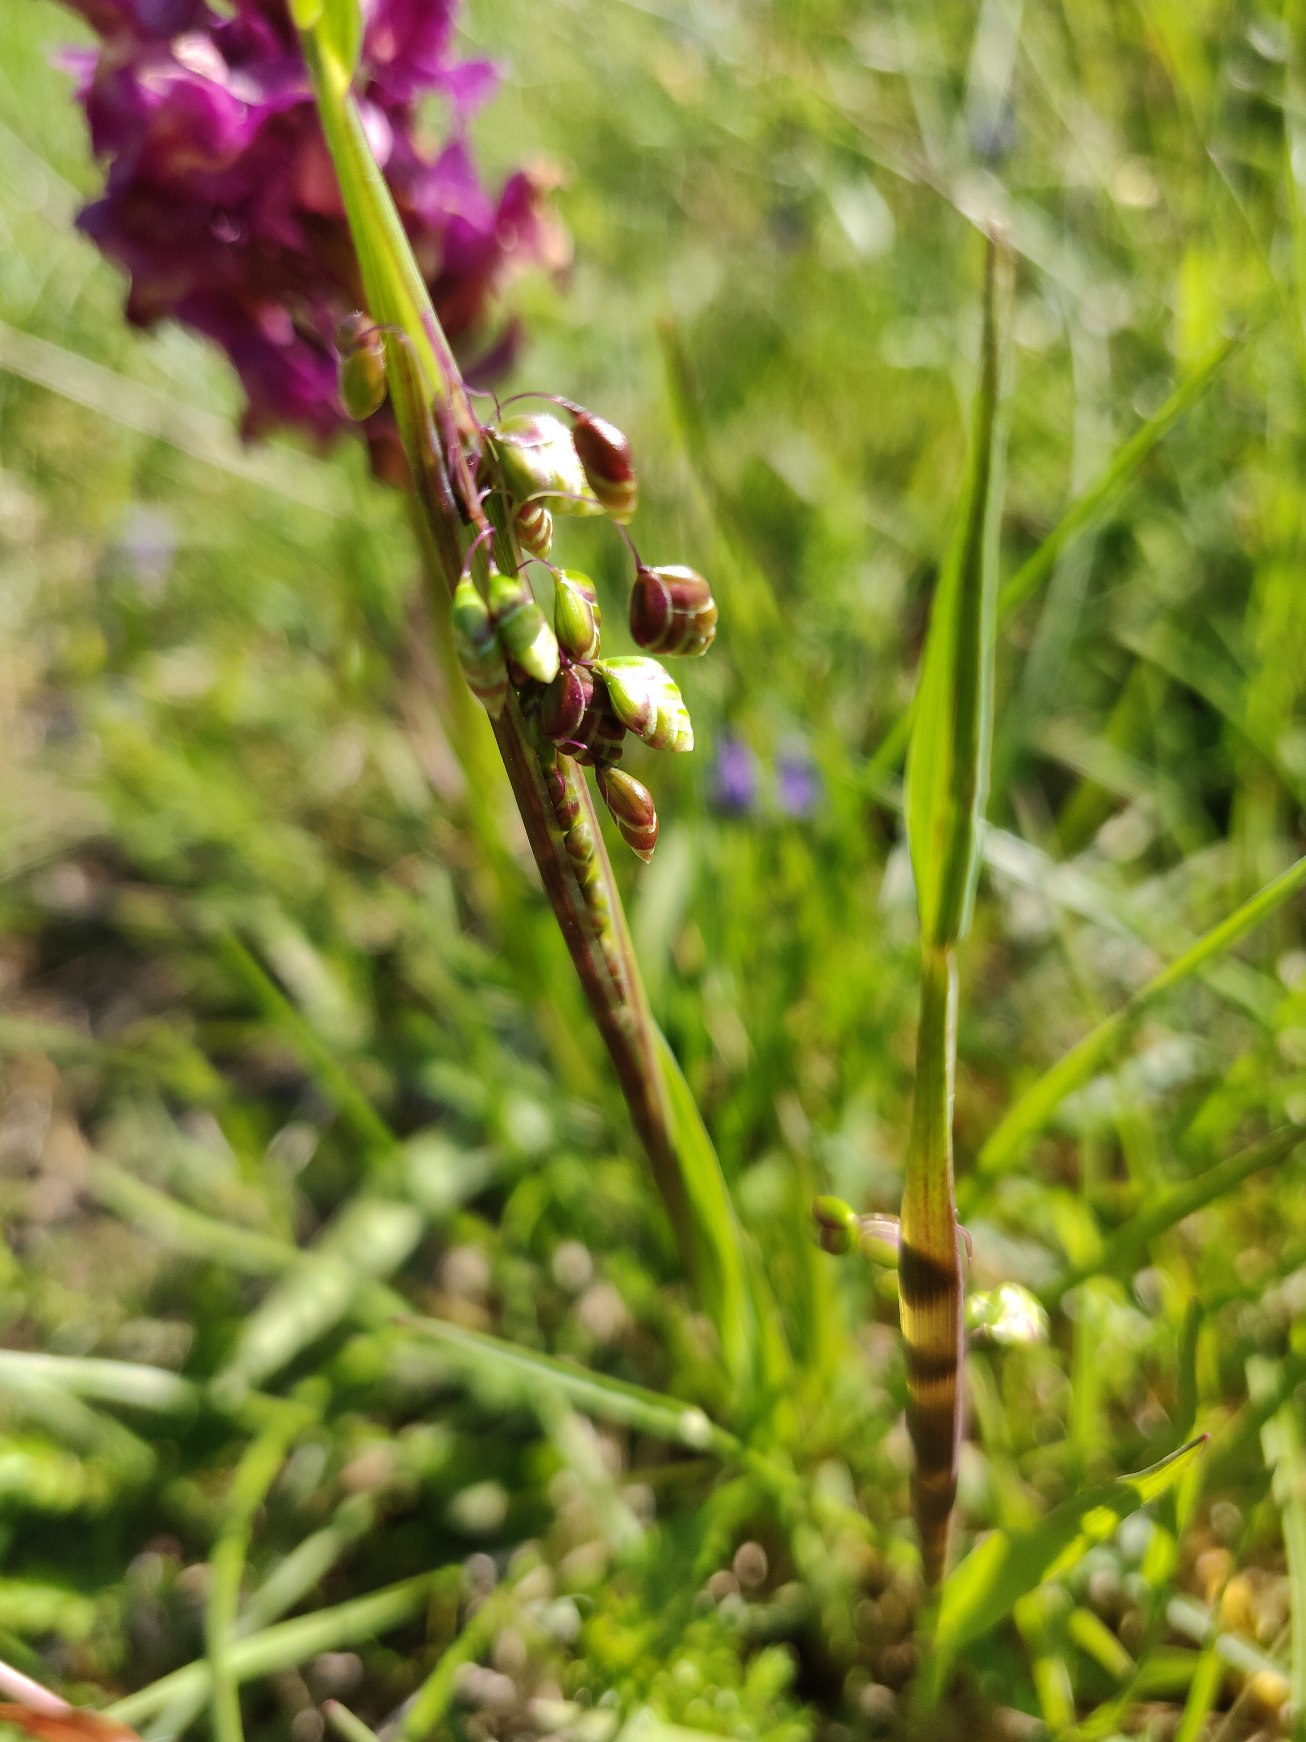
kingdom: Plantae
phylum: Tracheophyta
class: Liliopsida
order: Poales
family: Poaceae
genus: Briza
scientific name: Briza media
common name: Hjertegræs
